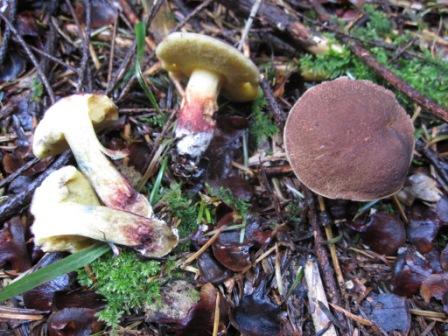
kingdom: Fungi
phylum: Basidiomycota
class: Agaricomycetes
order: Boletales
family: Boletaceae
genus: Xerocomellus
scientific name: Xerocomellus cisalpinus
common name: finsprukken rørhat
